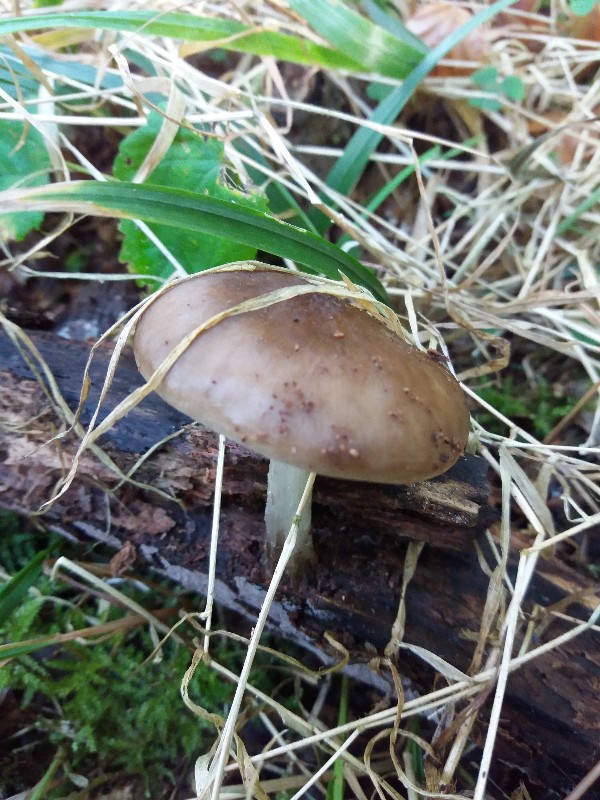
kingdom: Fungi
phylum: Basidiomycota
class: Agaricomycetes
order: Agaricales
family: Pluteaceae
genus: Pluteus
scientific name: Pluteus cervinus
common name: sodfarvet skærmhat
